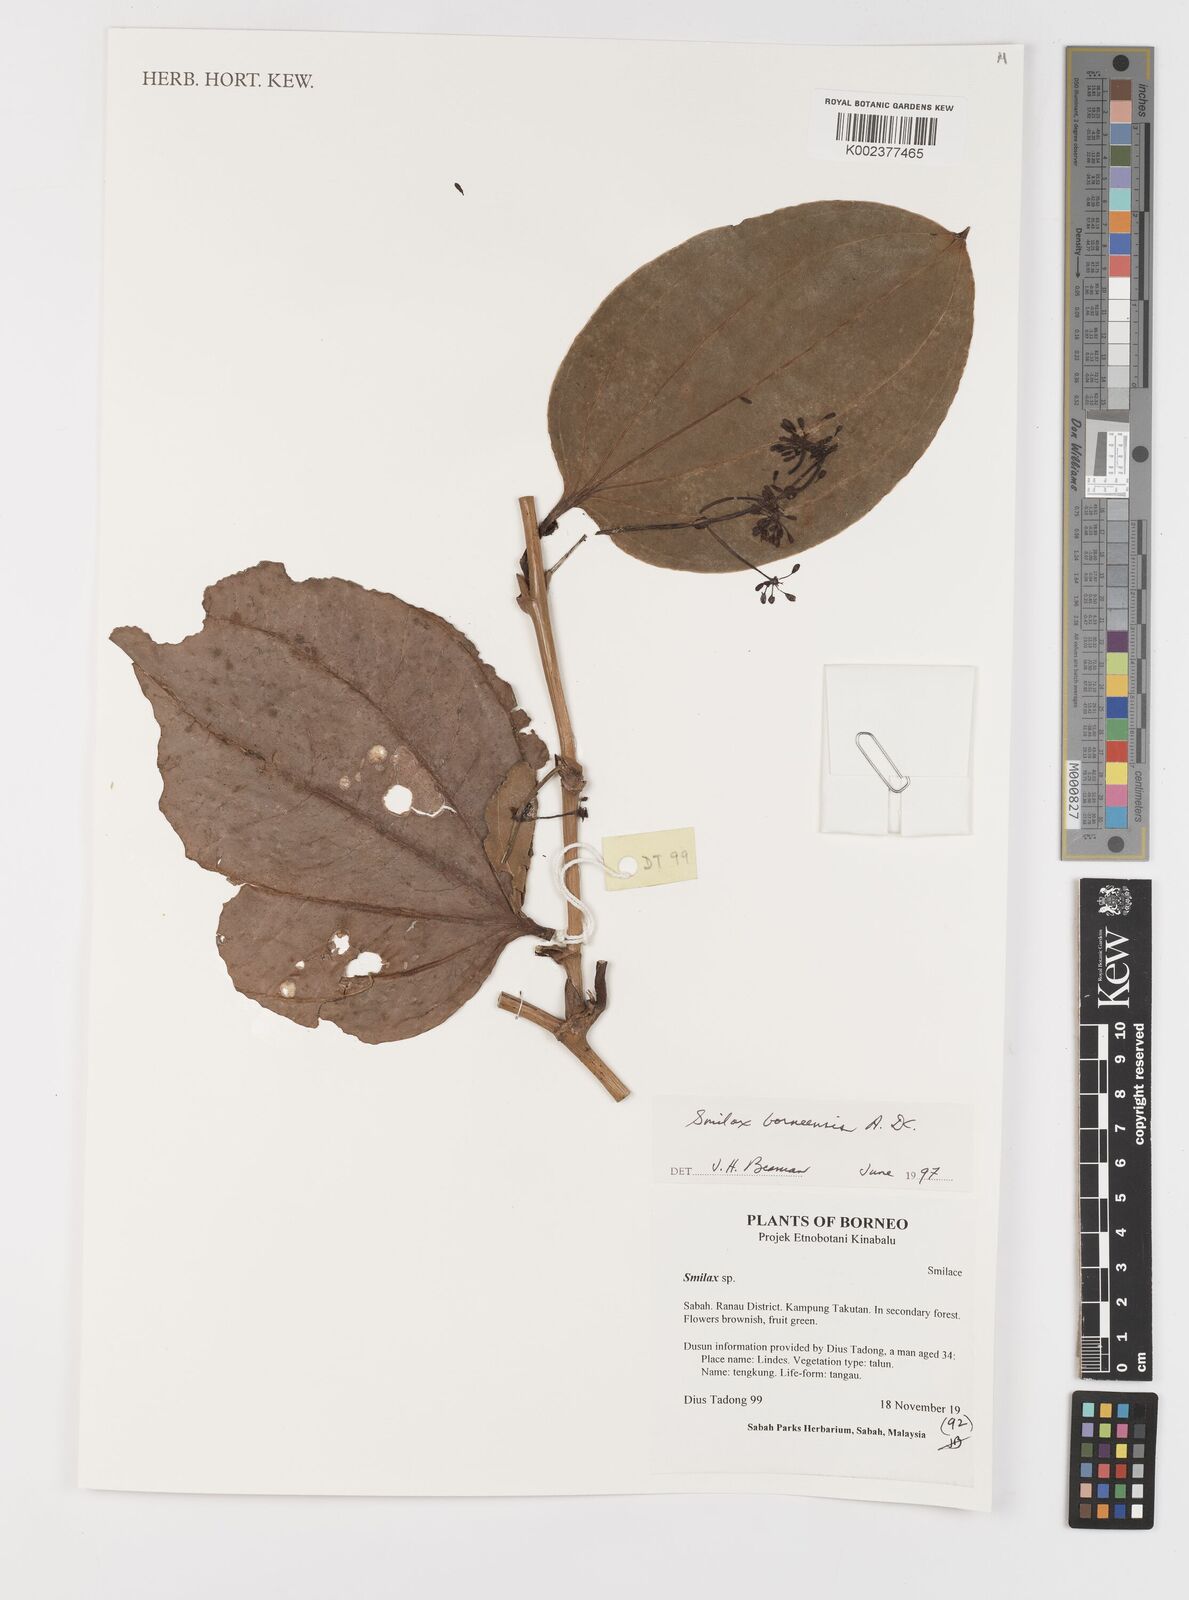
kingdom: Plantae
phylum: Tracheophyta
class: Liliopsida
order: Liliales
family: Smilacaceae
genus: Smilax
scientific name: Smilax borneensis
